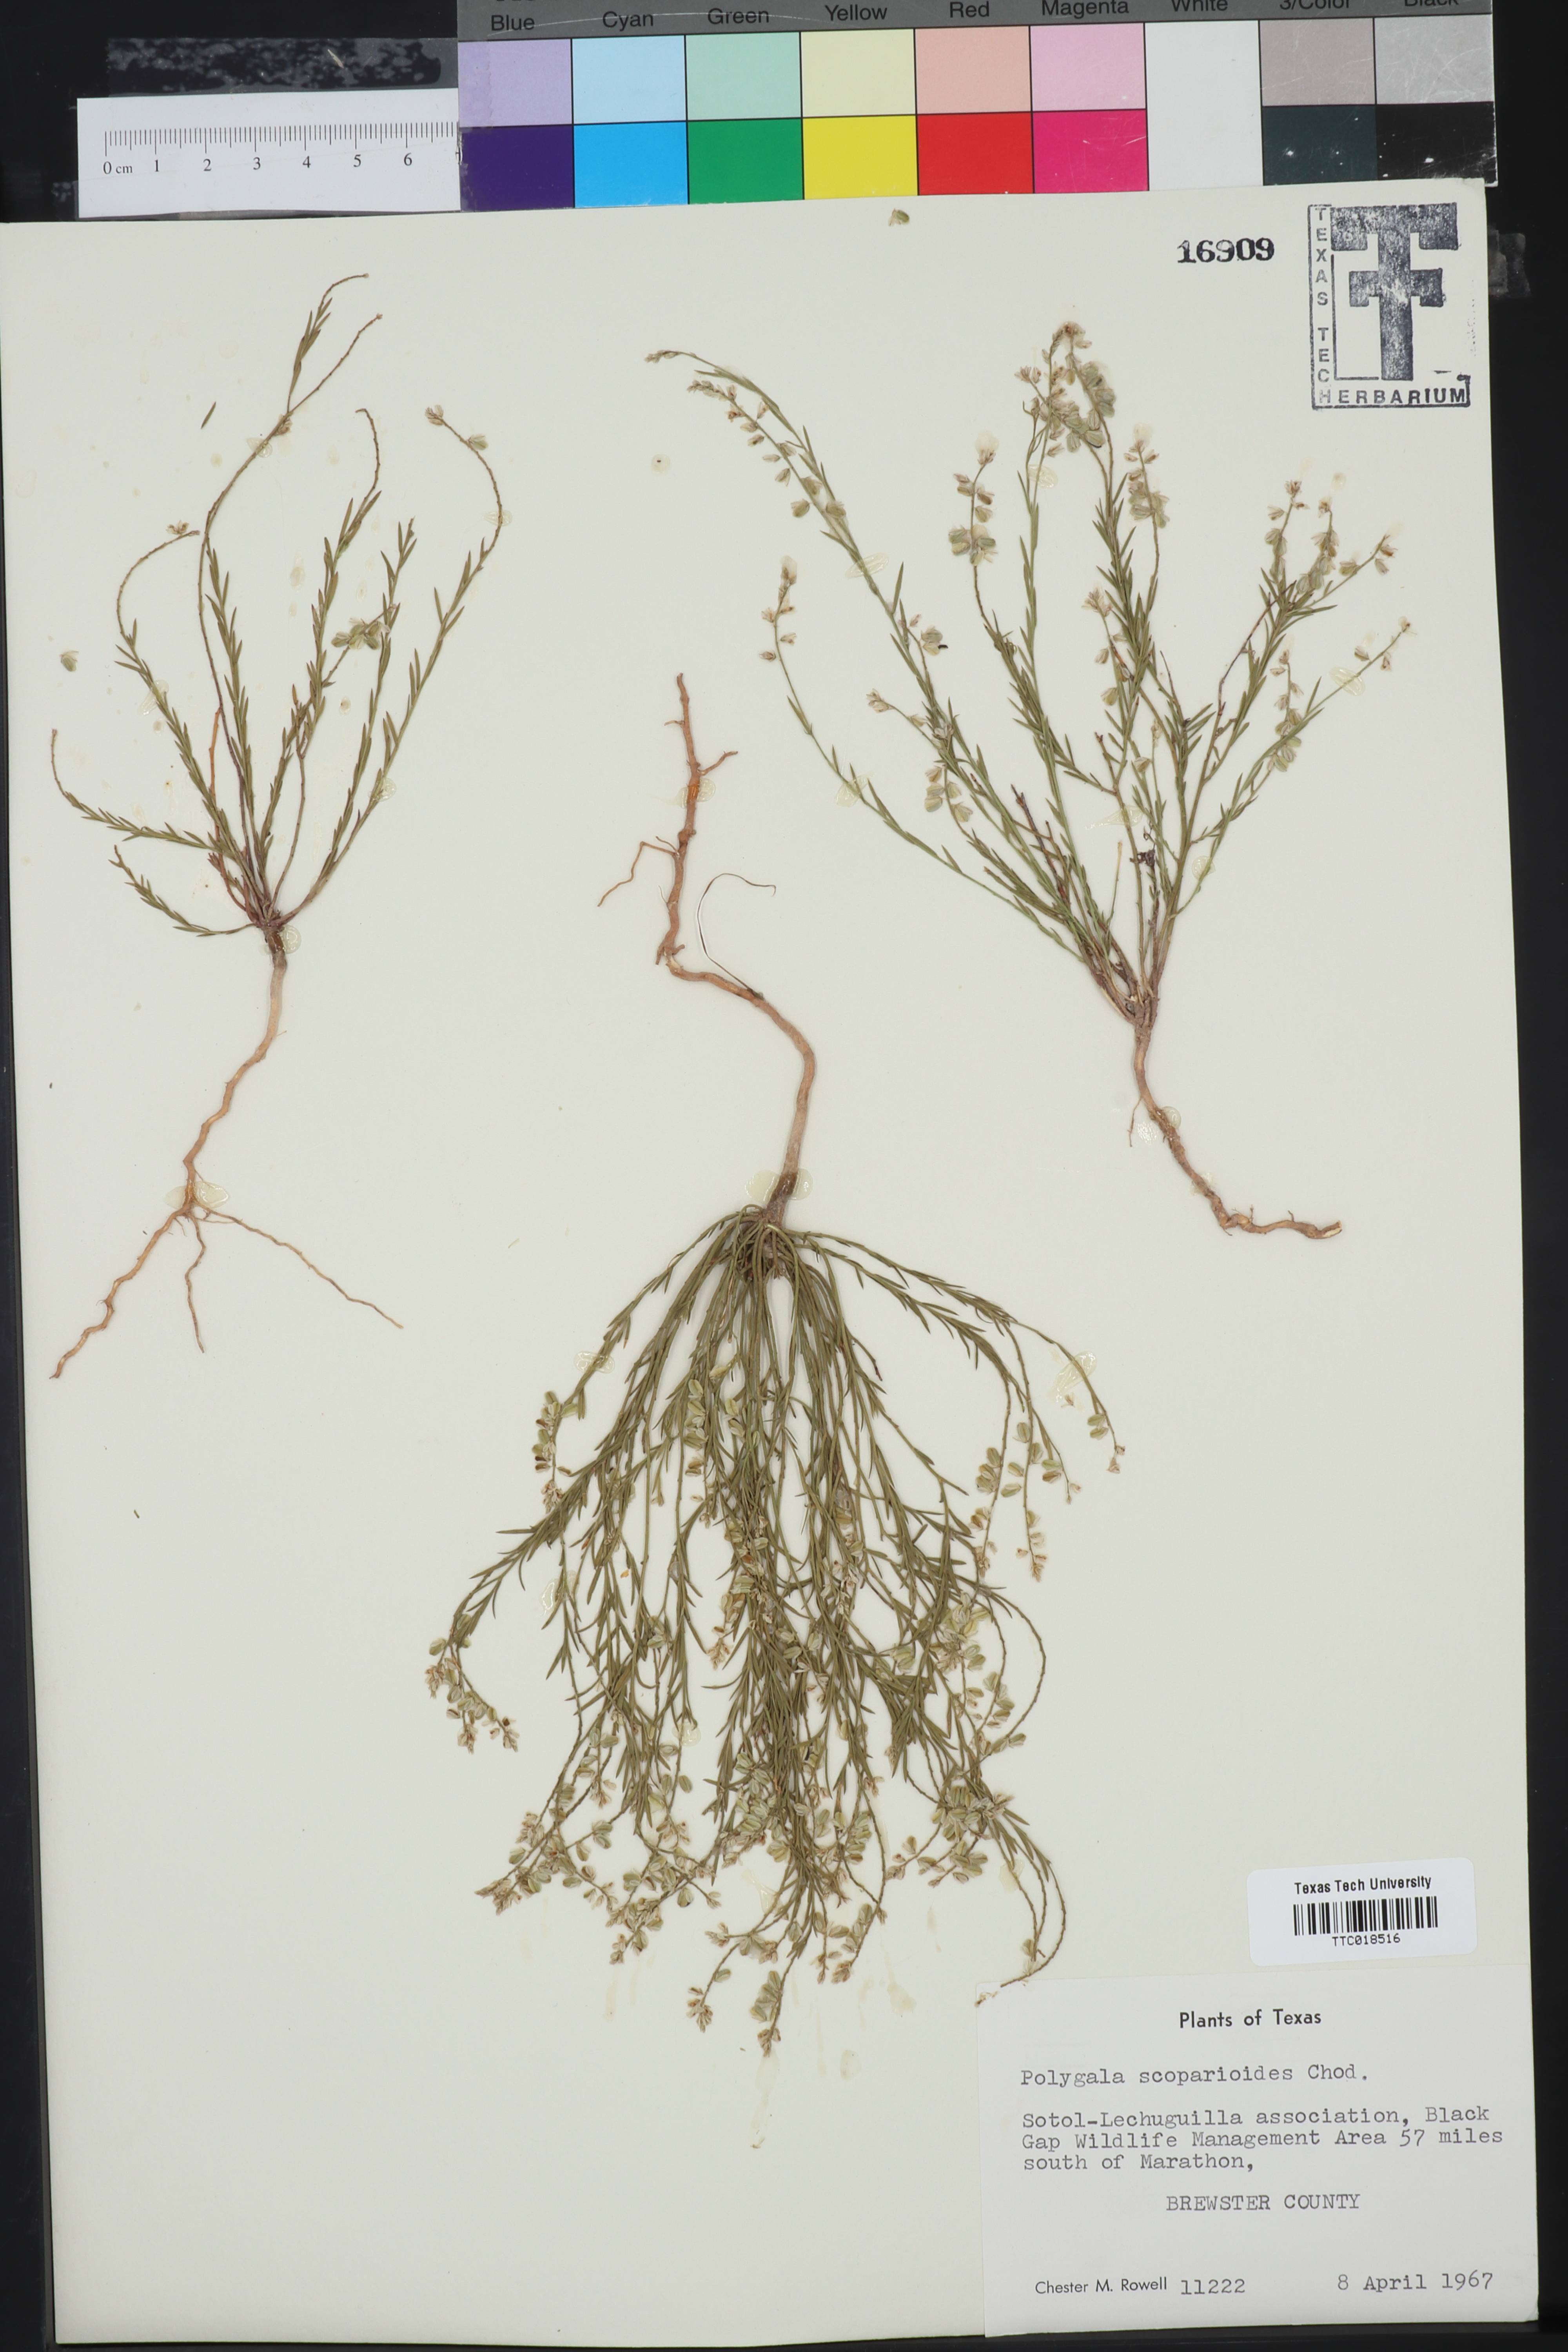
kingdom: Plantae
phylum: Tracheophyta
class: Magnoliopsida
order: Fabales
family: Polygalaceae
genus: Polygala
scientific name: Polygala scoparioides
